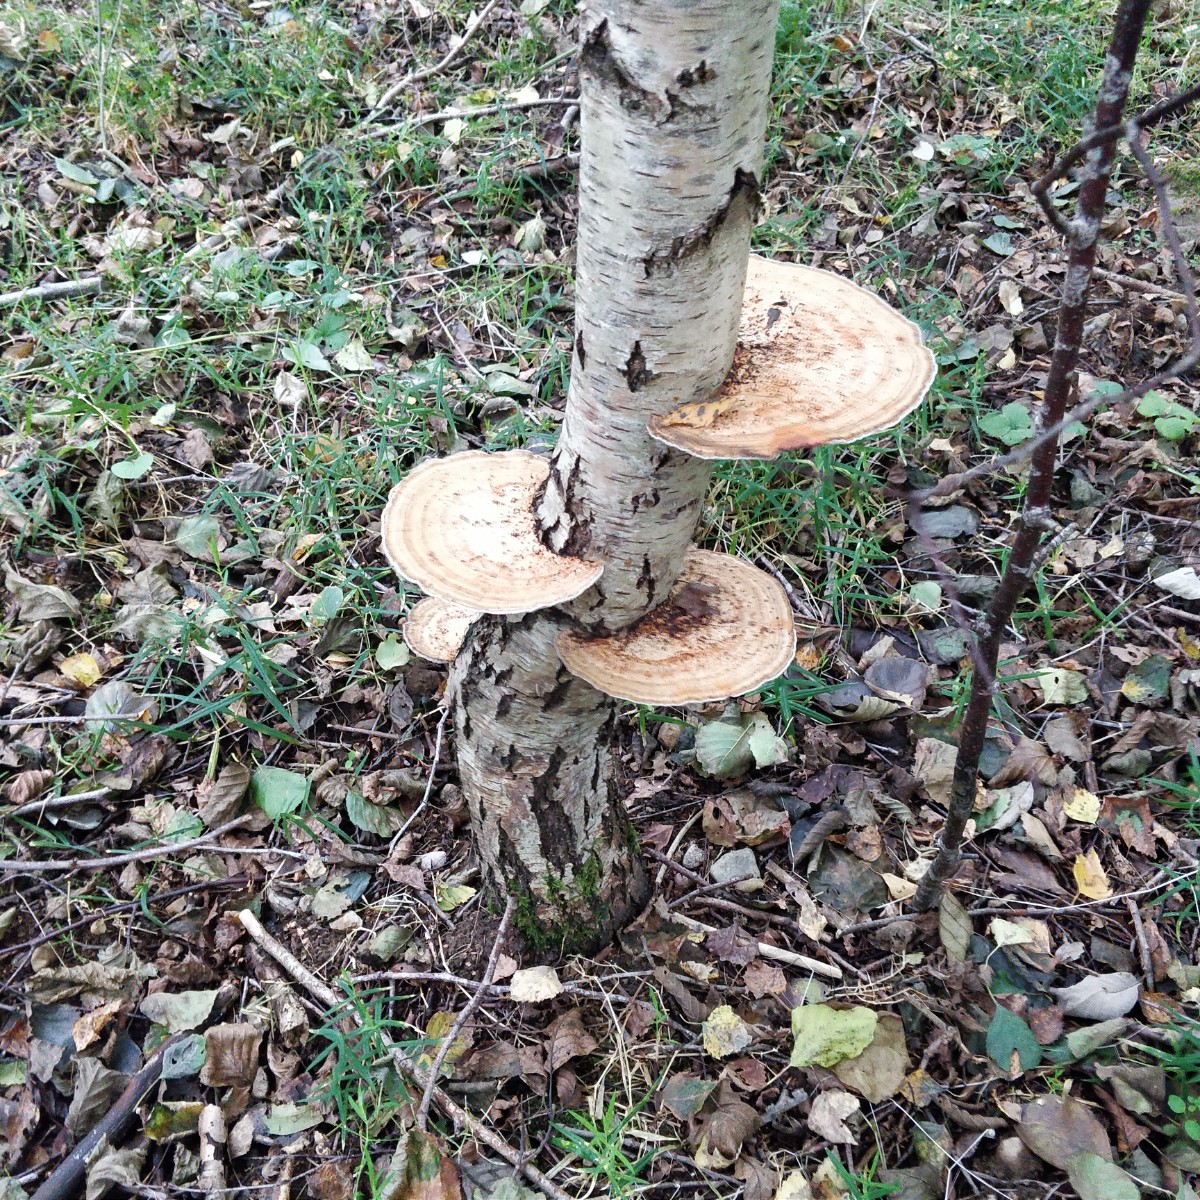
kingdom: Fungi
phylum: Basidiomycota
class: Agaricomycetes
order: Polyporales
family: Polyporaceae
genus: Daedaleopsis
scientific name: Daedaleopsis confragosa
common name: rødmende læderporesvamp
